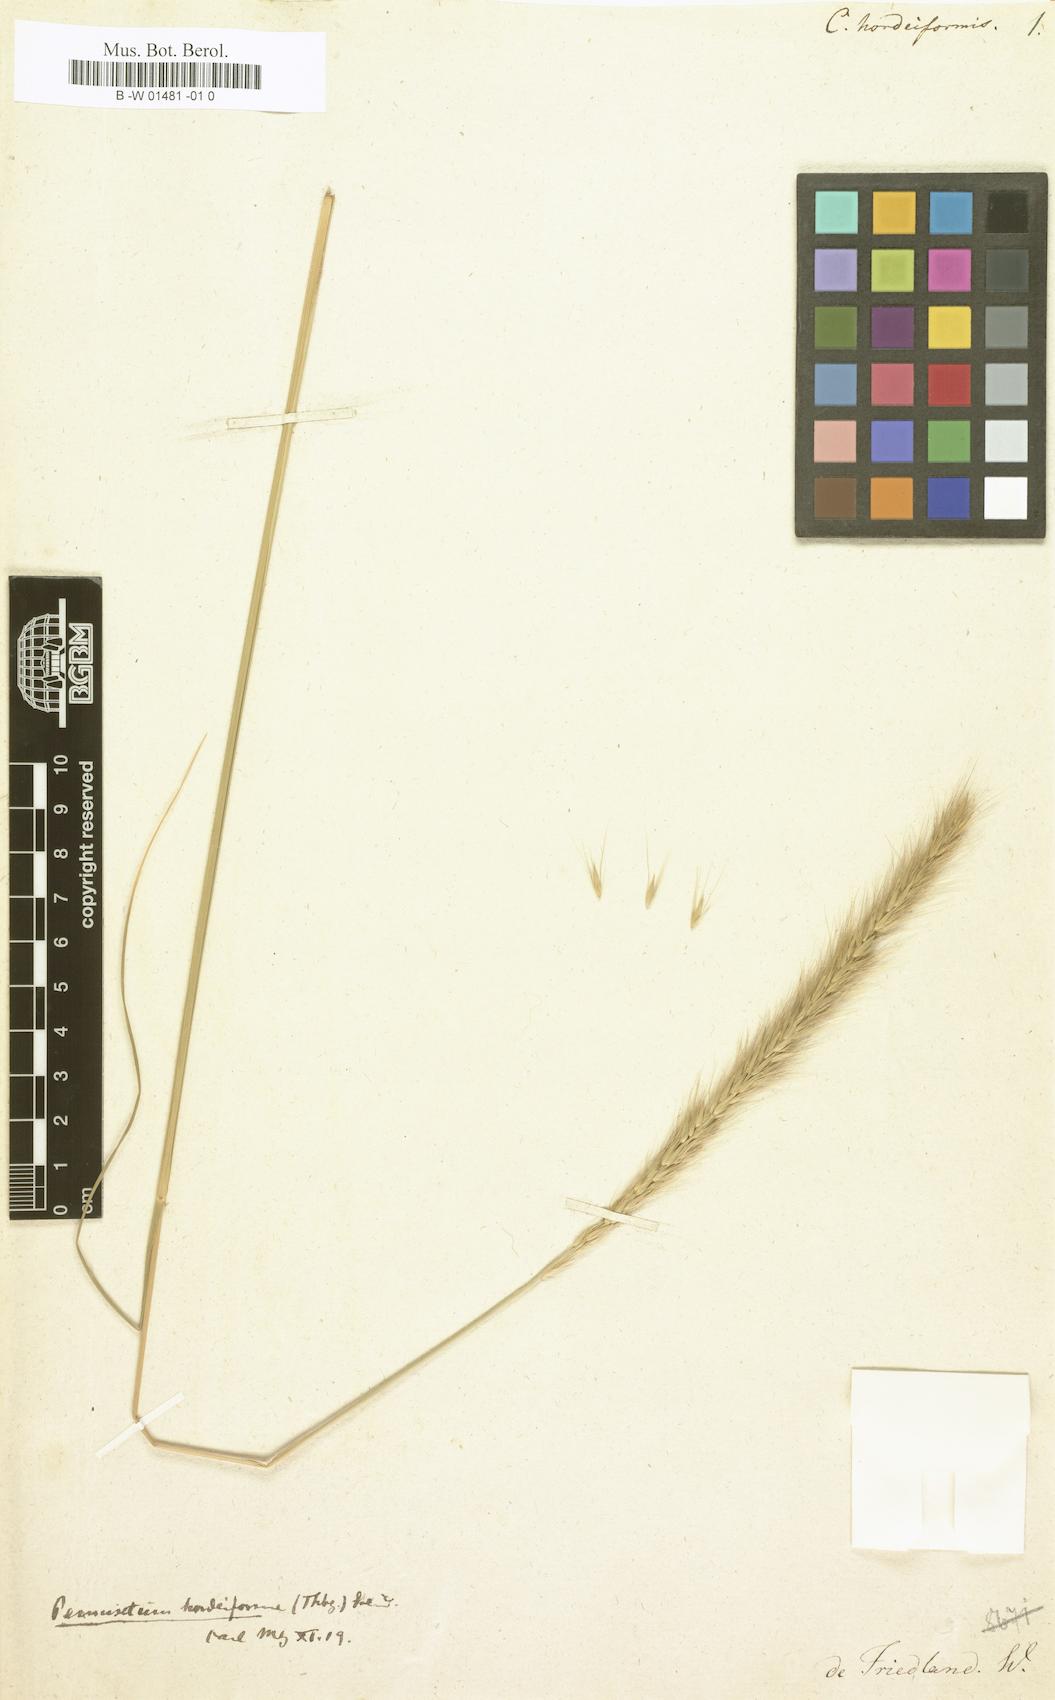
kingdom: Plantae
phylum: Tracheophyta
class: Liliopsida
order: Poales
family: Poaceae
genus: Cenchrus
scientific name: Cenchrus alopecuroides
